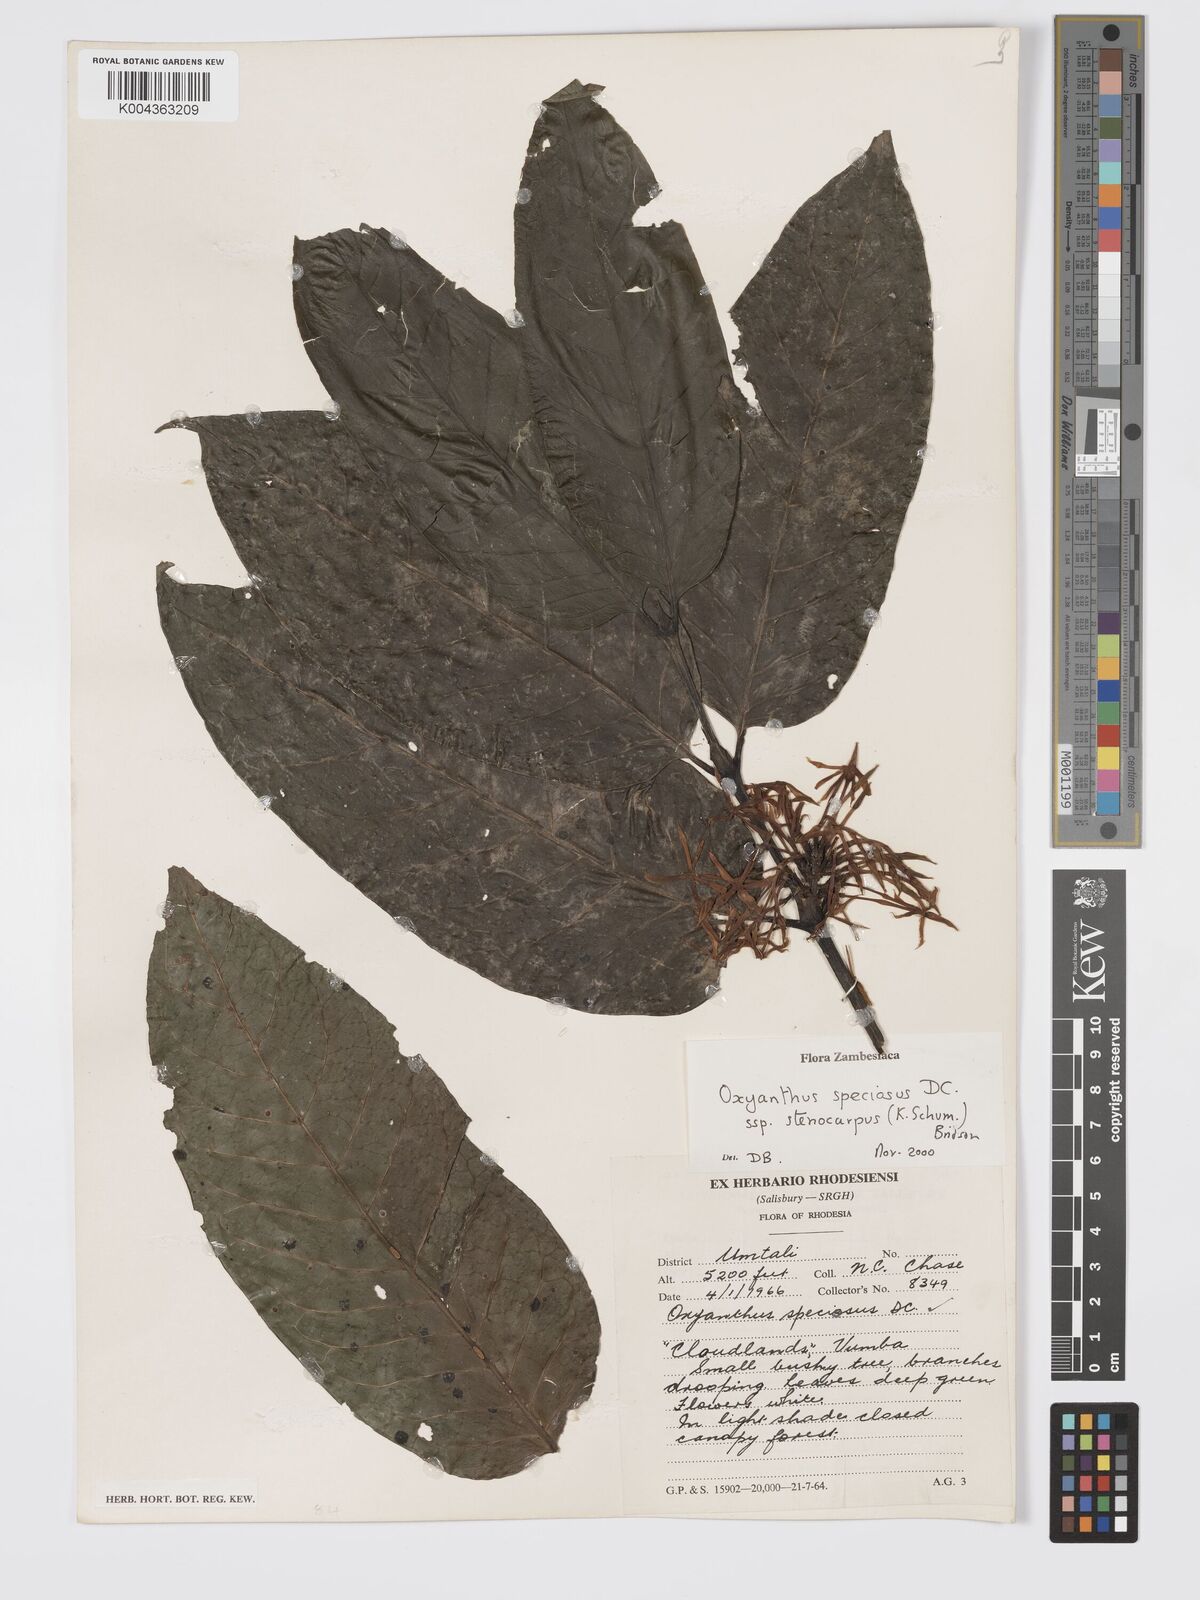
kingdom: Plantae
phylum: Tracheophyta
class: Magnoliopsida
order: Gentianales
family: Rubiaceae
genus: Oxyanthus
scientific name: Oxyanthus speciosus
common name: Whipstick loquat
